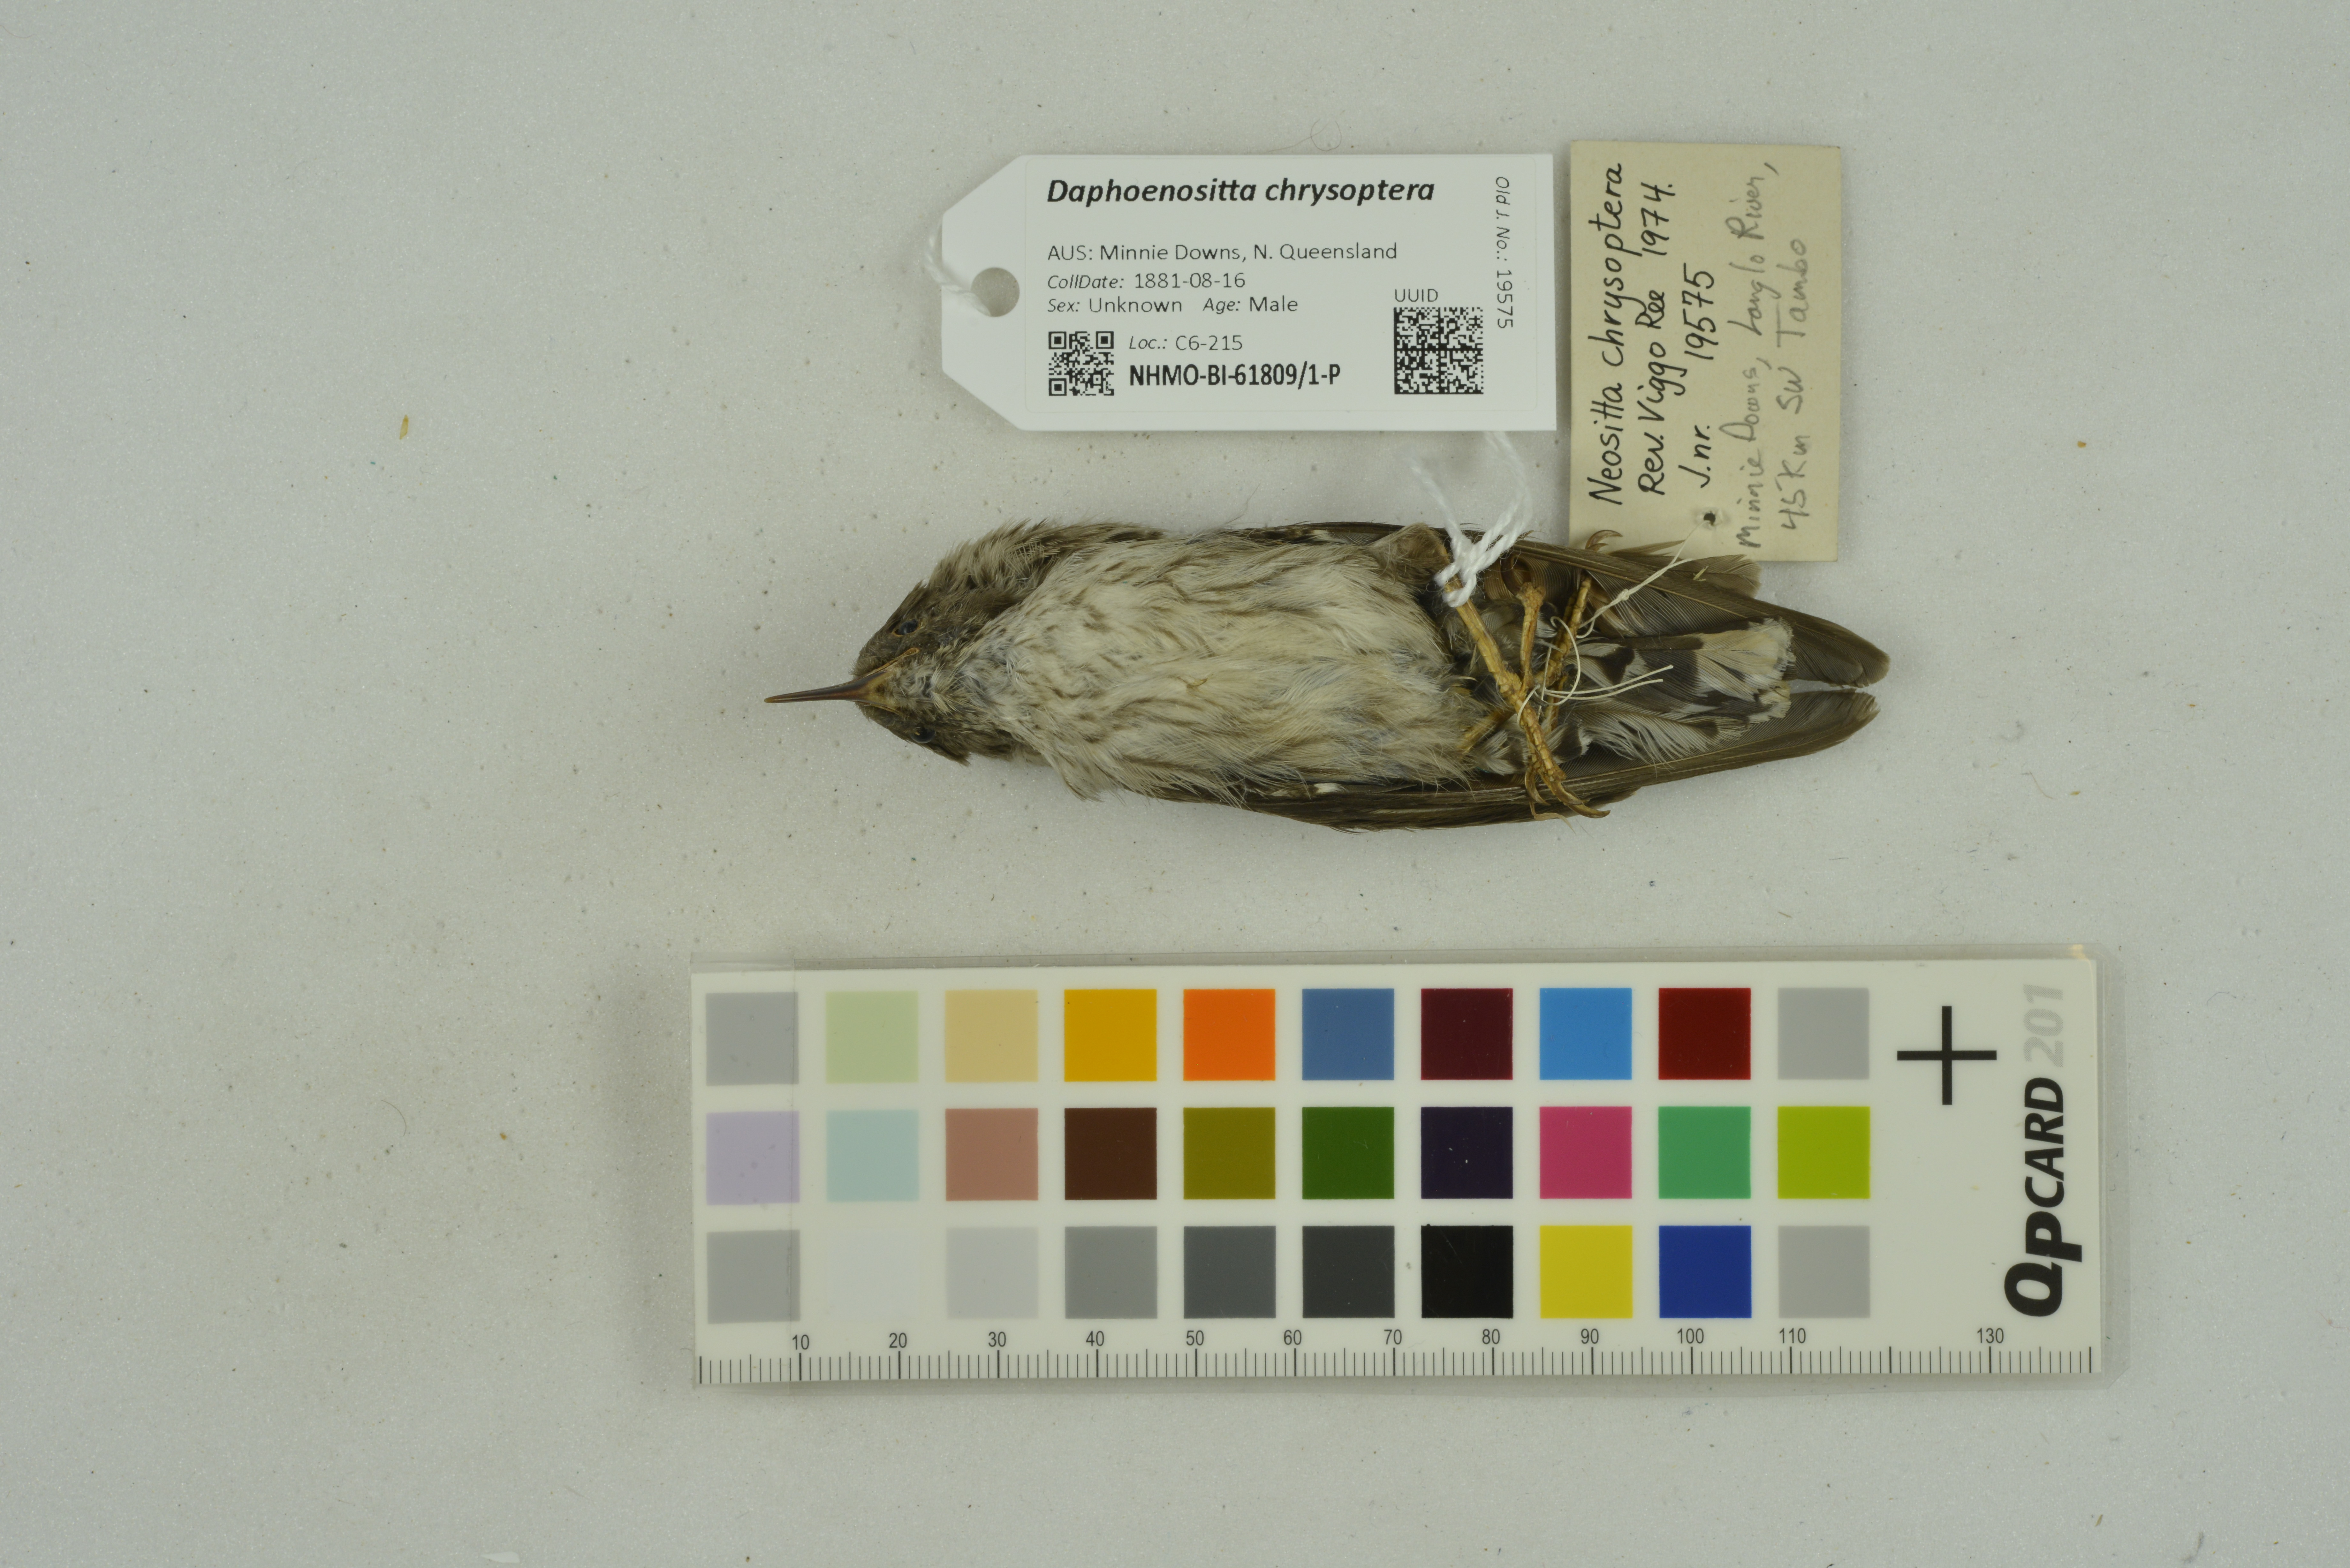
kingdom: Animalia
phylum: Chordata
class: Aves
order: Passeriformes
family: Neosittidae
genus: Daphoenositta
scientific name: Daphoenositta chrysoptera
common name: Varied sittella
